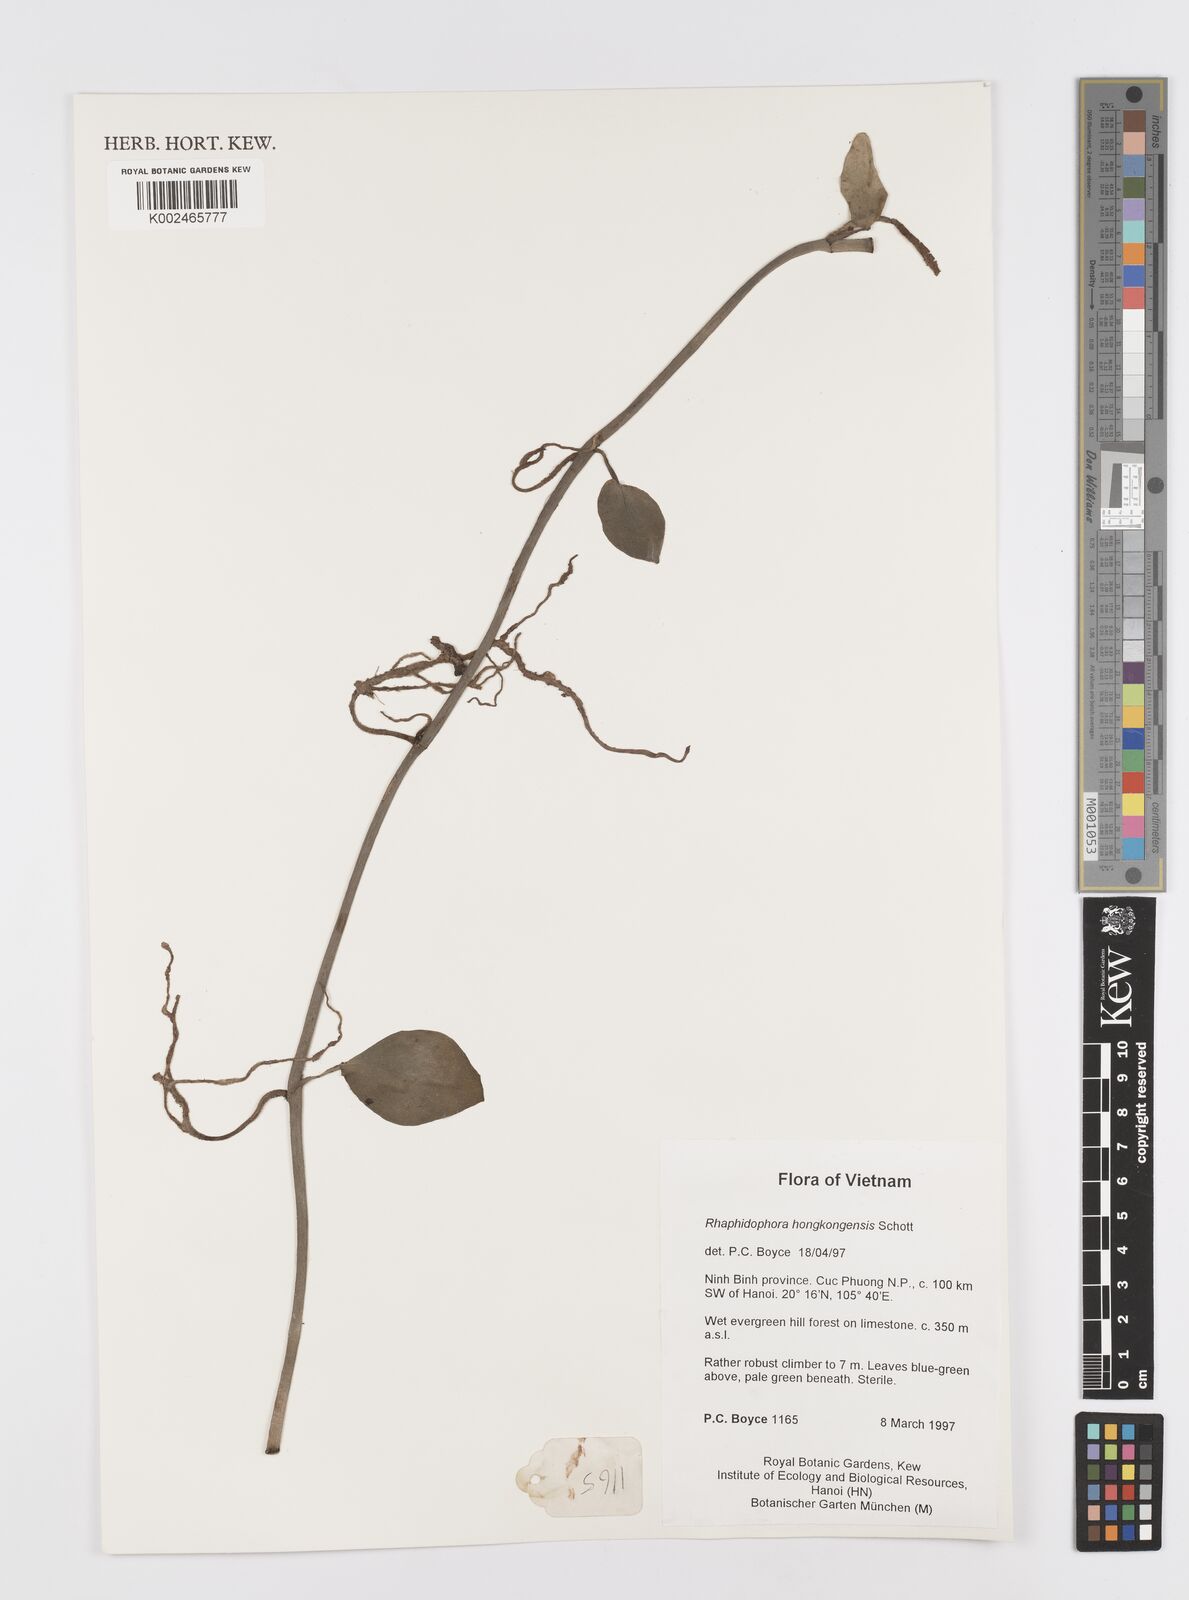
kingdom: Plantae
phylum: Tracheophyta
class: Liliopsida
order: Alismatales
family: Araceae
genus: Rhaphidophora
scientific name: Rhaphidophora
